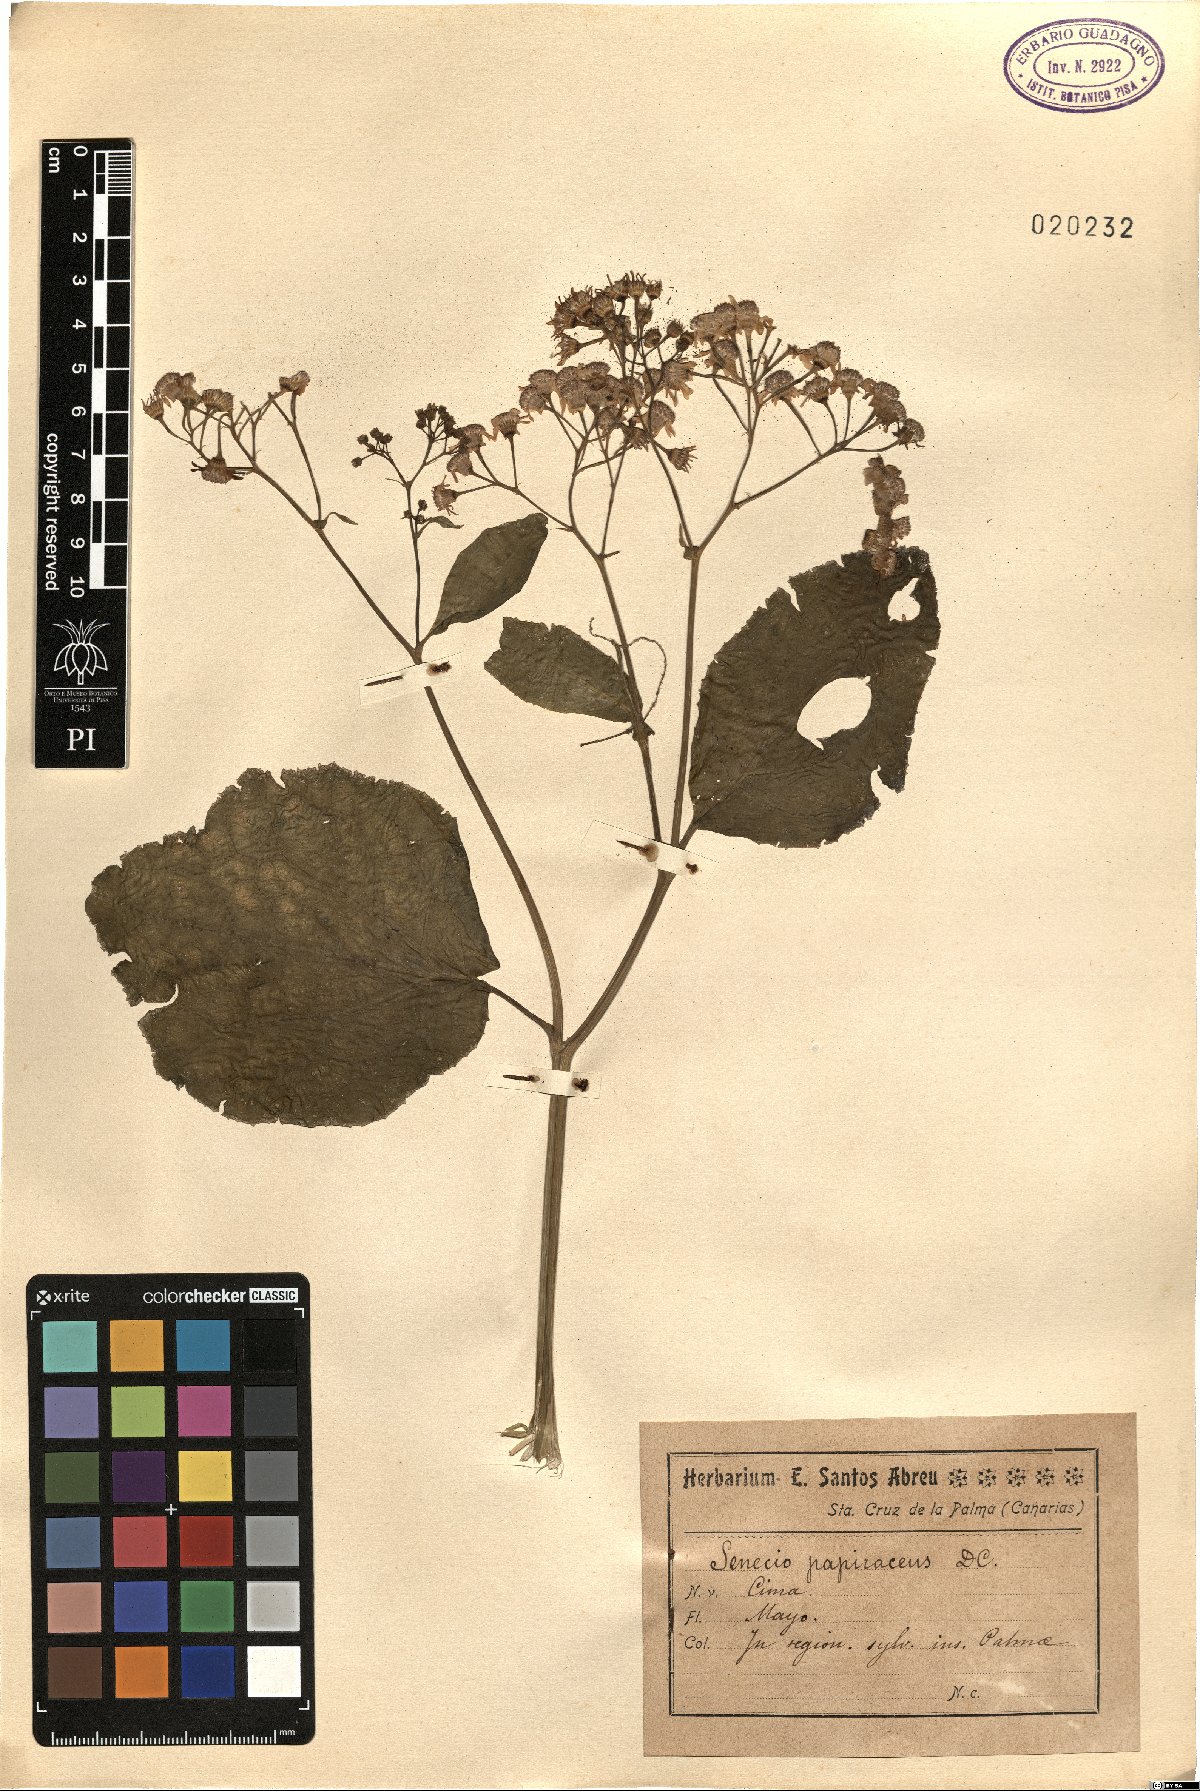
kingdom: Plantae
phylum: Tracheophyta
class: Magnoliopsida
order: Asterales
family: Asteraceae
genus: Pericallis
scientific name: Pericallis papyracea
